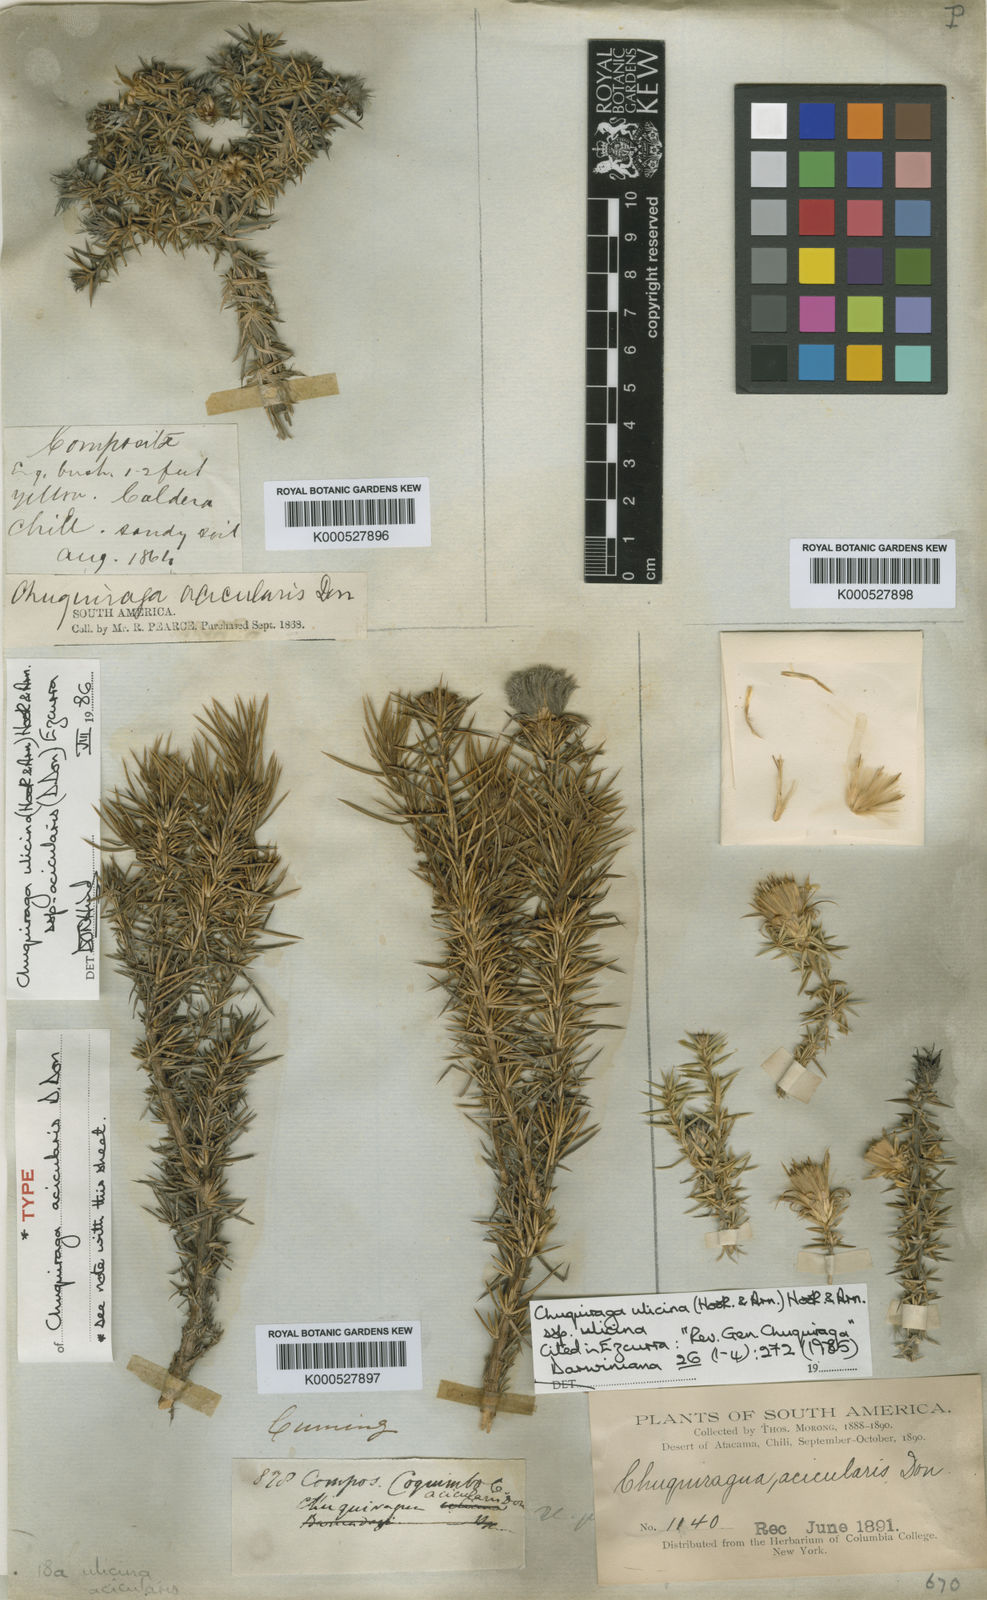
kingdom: Plantae
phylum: Tracheophyta
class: Magnoliopsida
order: Asterales
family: Asteraceae
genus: Chuquiraga
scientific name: Chuquiraga ulicina
